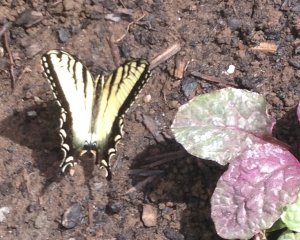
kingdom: Animalia
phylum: Arthropoda
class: Insecta
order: Lepidoptera
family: Papilionidae
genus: Pterourus
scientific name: Pterourus glaucus
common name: Eastern Tiger Swallowtail
